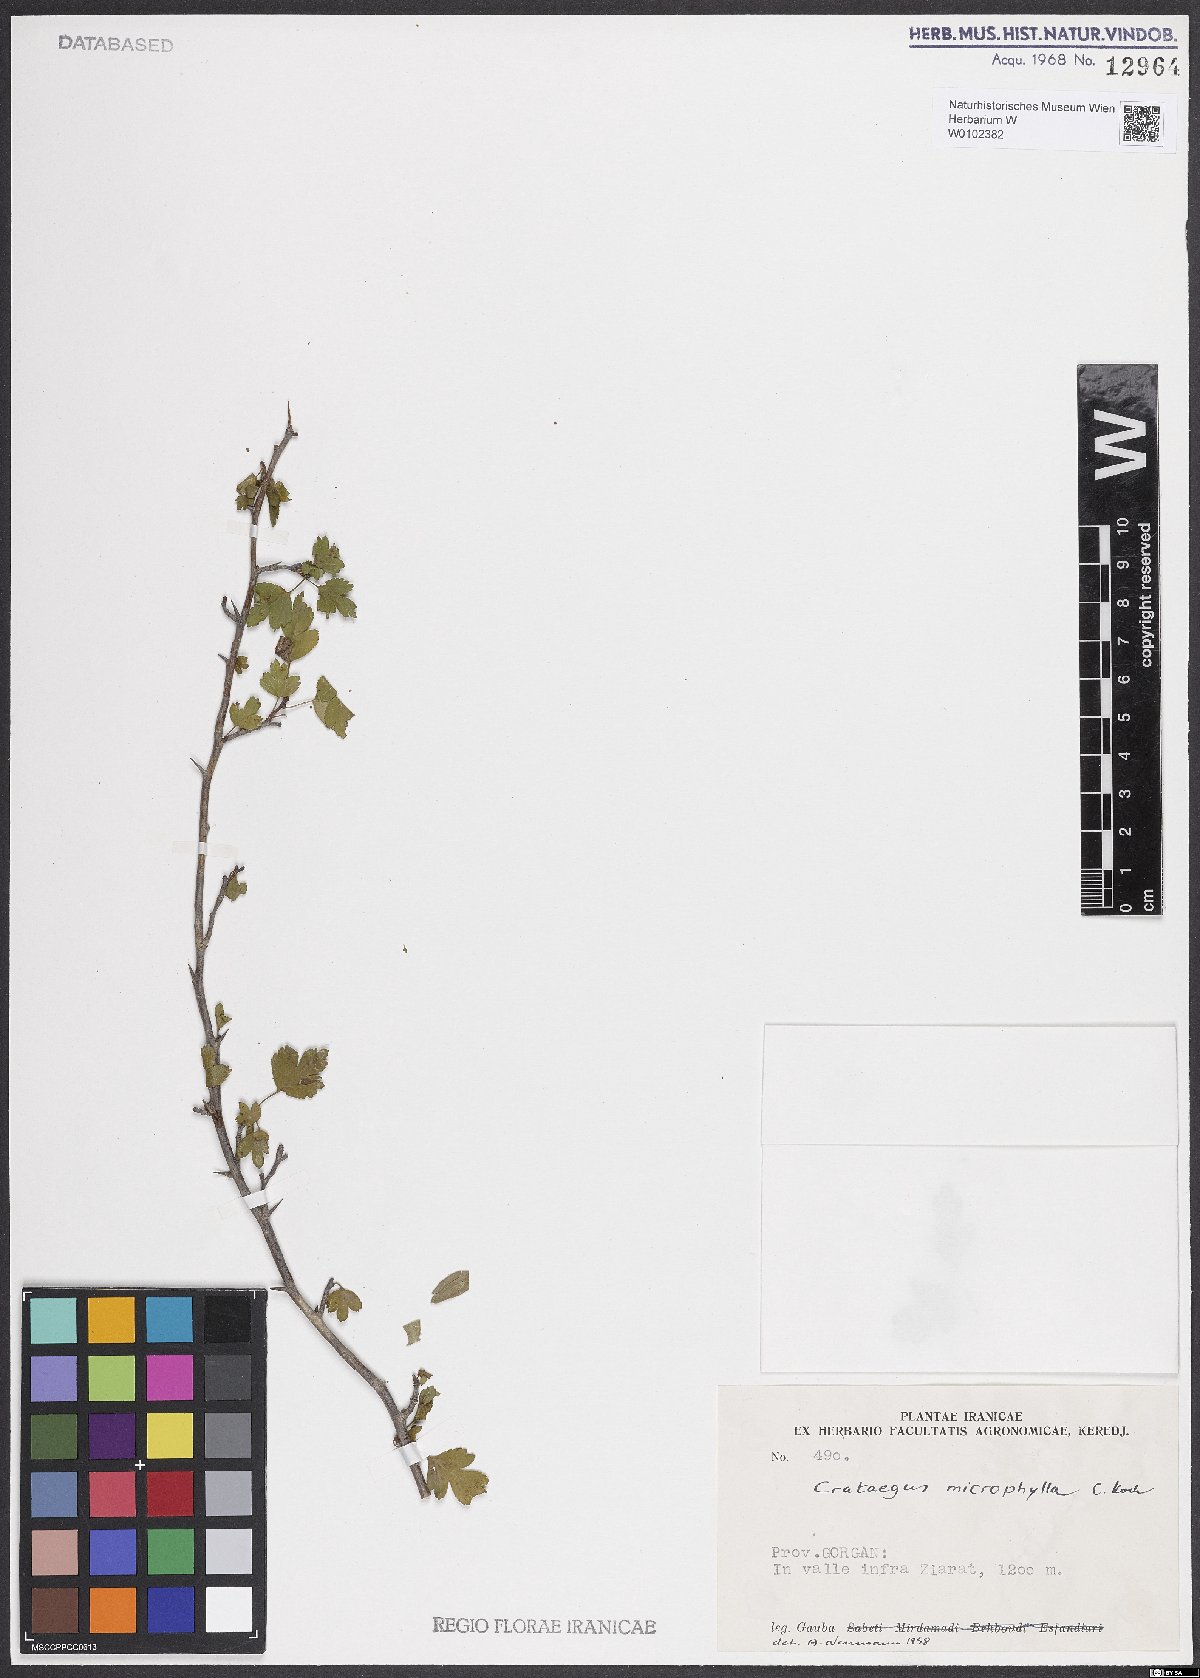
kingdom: Plantae
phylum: Tracheophyta
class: Magnoliopsida
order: Rosales
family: Rosaceae
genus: Crataegus
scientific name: Crataegus microphylla
